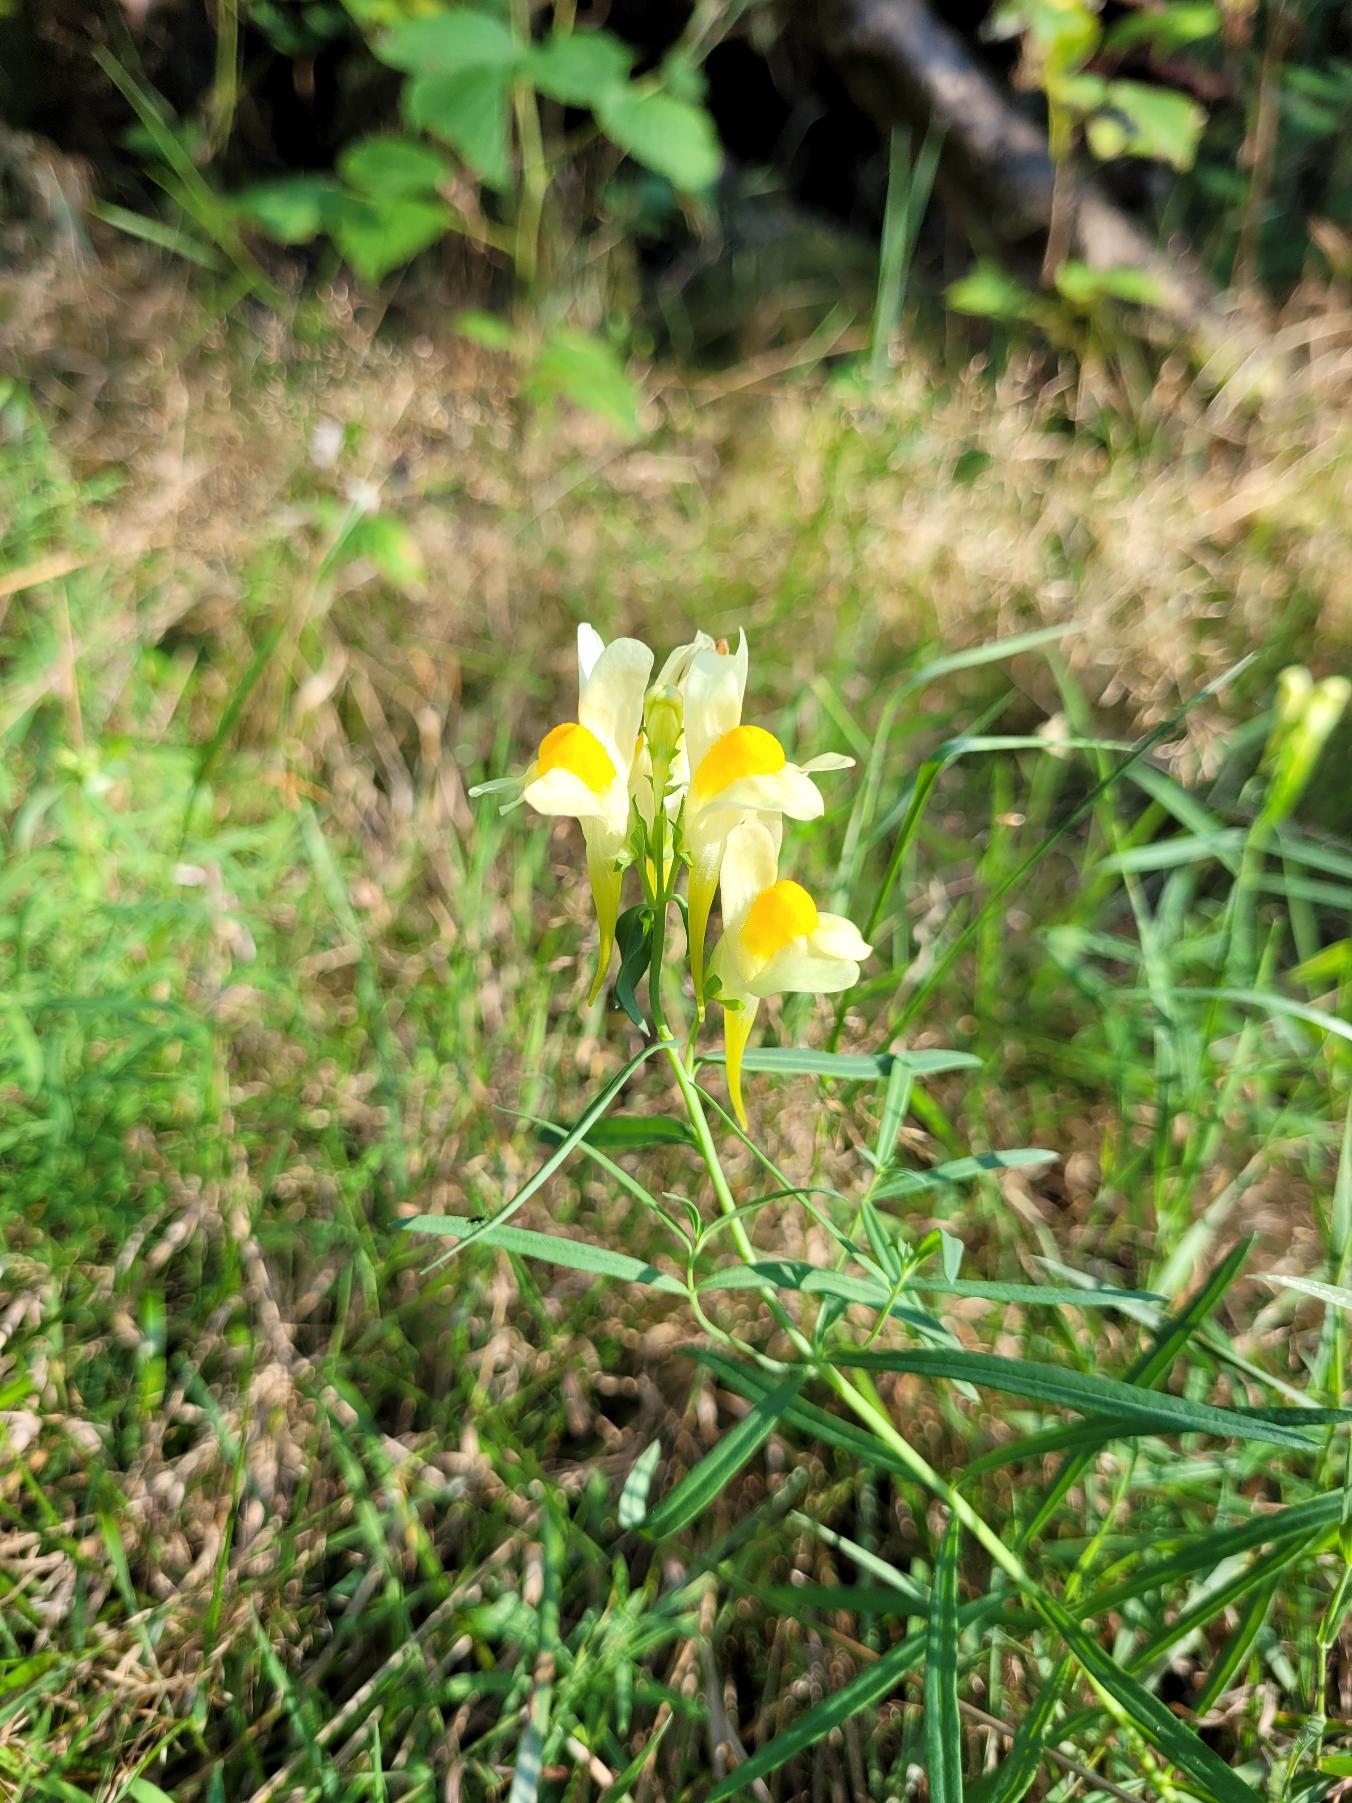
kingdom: Plantae
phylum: Tracheophyta
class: Magnoliopsida
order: Lamiales
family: Plantaginaceae
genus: Linaria
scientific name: Linaria vulgaris
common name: Almindelig torskemund
